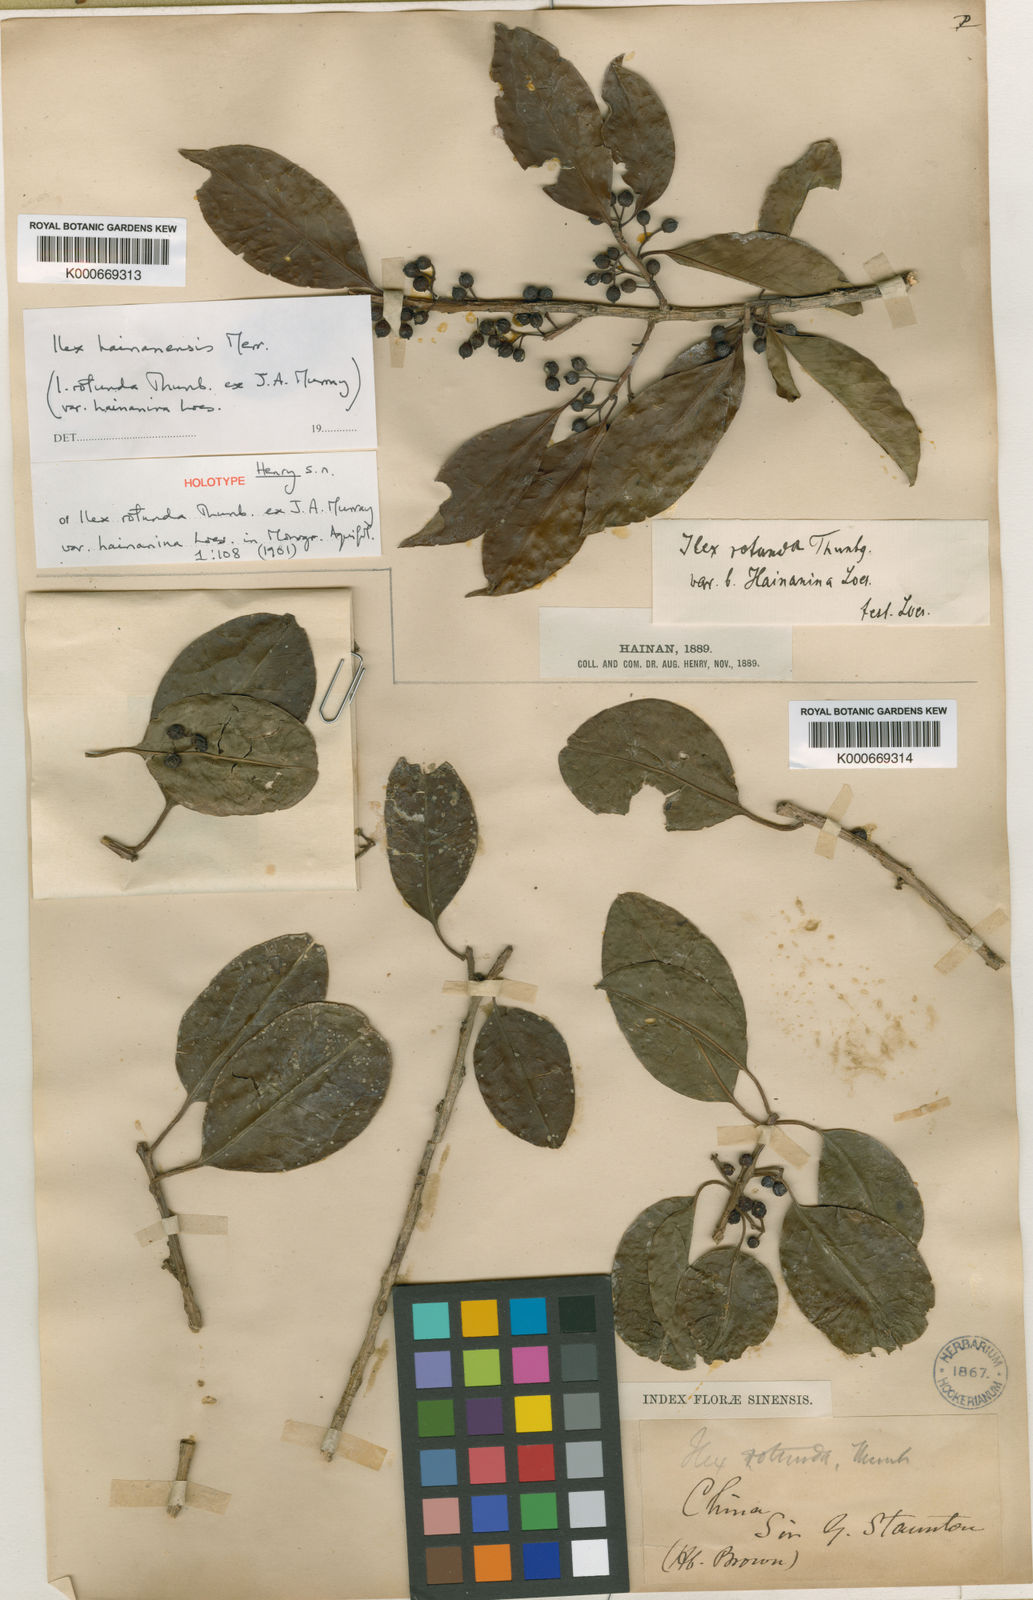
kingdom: Plantae
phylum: Tracheophyta
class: Magnoliopsida
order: Aquifoliales
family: Aquifoliaceae
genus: Ilex
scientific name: Ilex hainanensis
